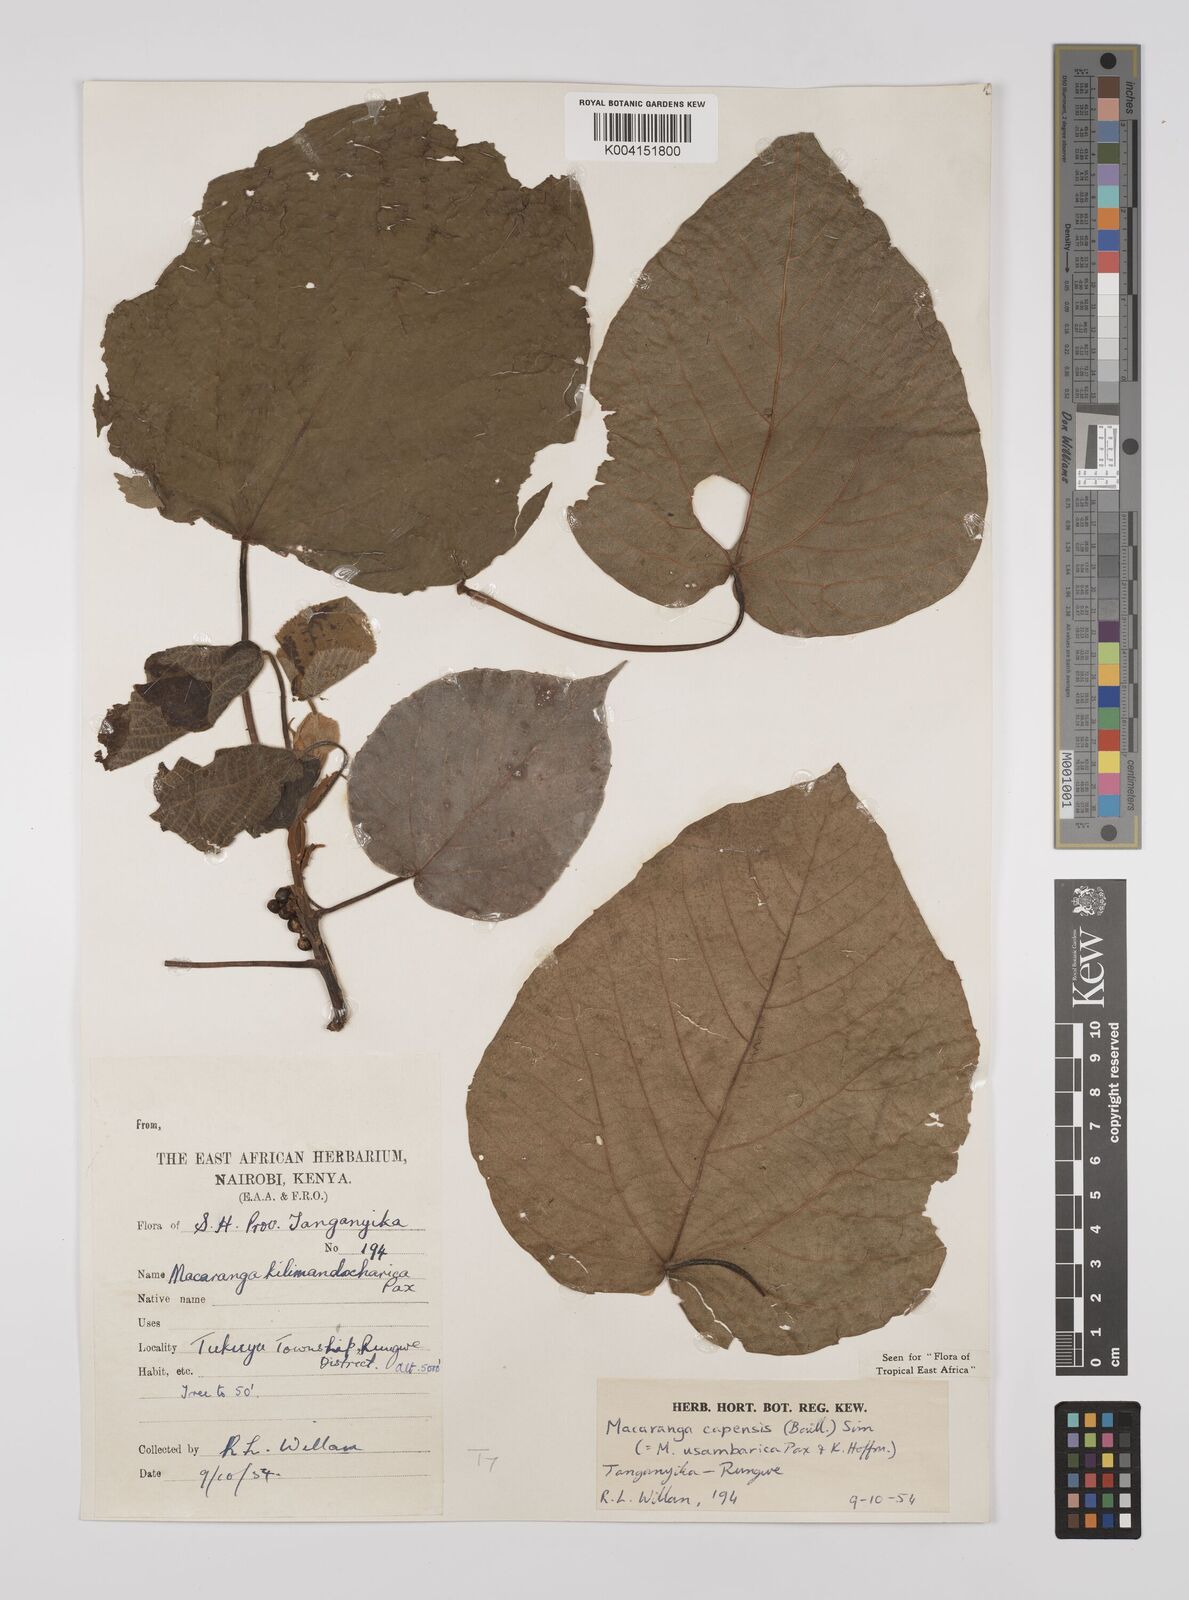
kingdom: Plantae
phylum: Tracheophyta
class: Magnoliopsida
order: Malpighiales
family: Euphorbiaceae
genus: Macaranga
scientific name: Macaranga capensis
